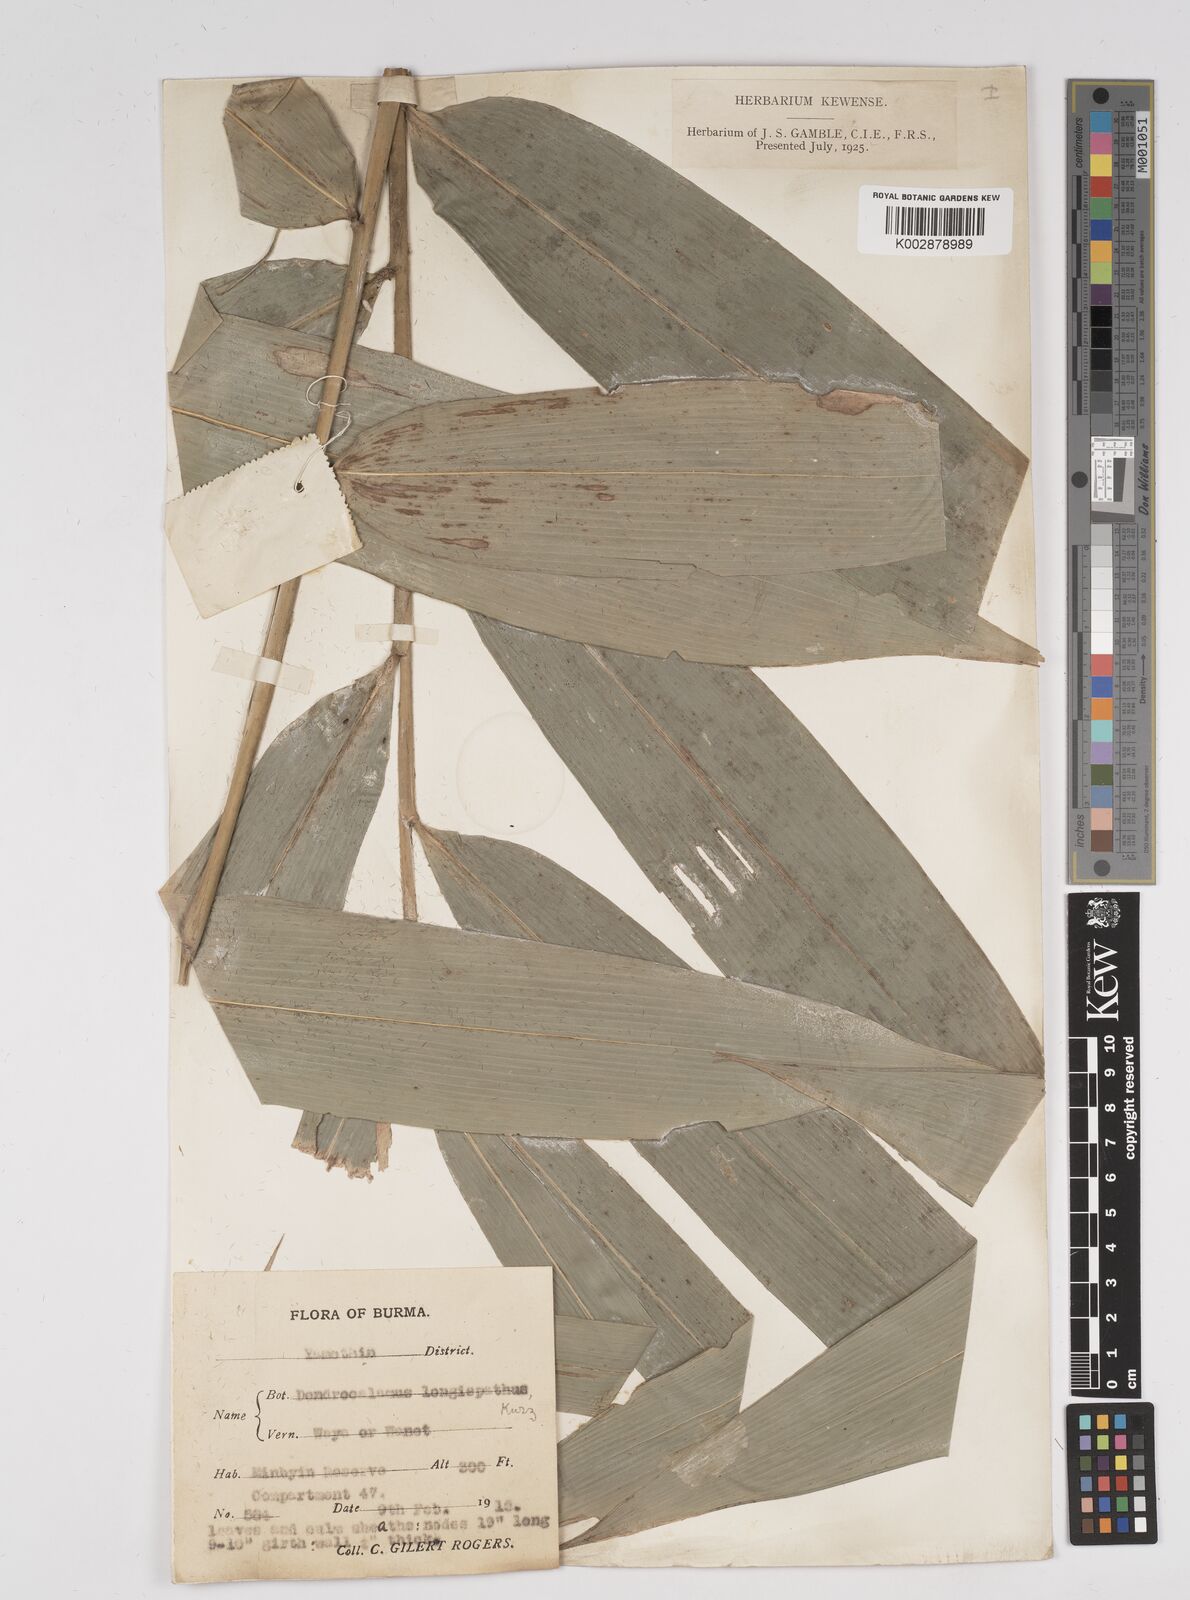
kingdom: Plantae
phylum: Tracheophyta
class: Liliopsida
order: Poales
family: Poaceae
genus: Dendrocalamus
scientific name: Dendrocalamus longispathus
